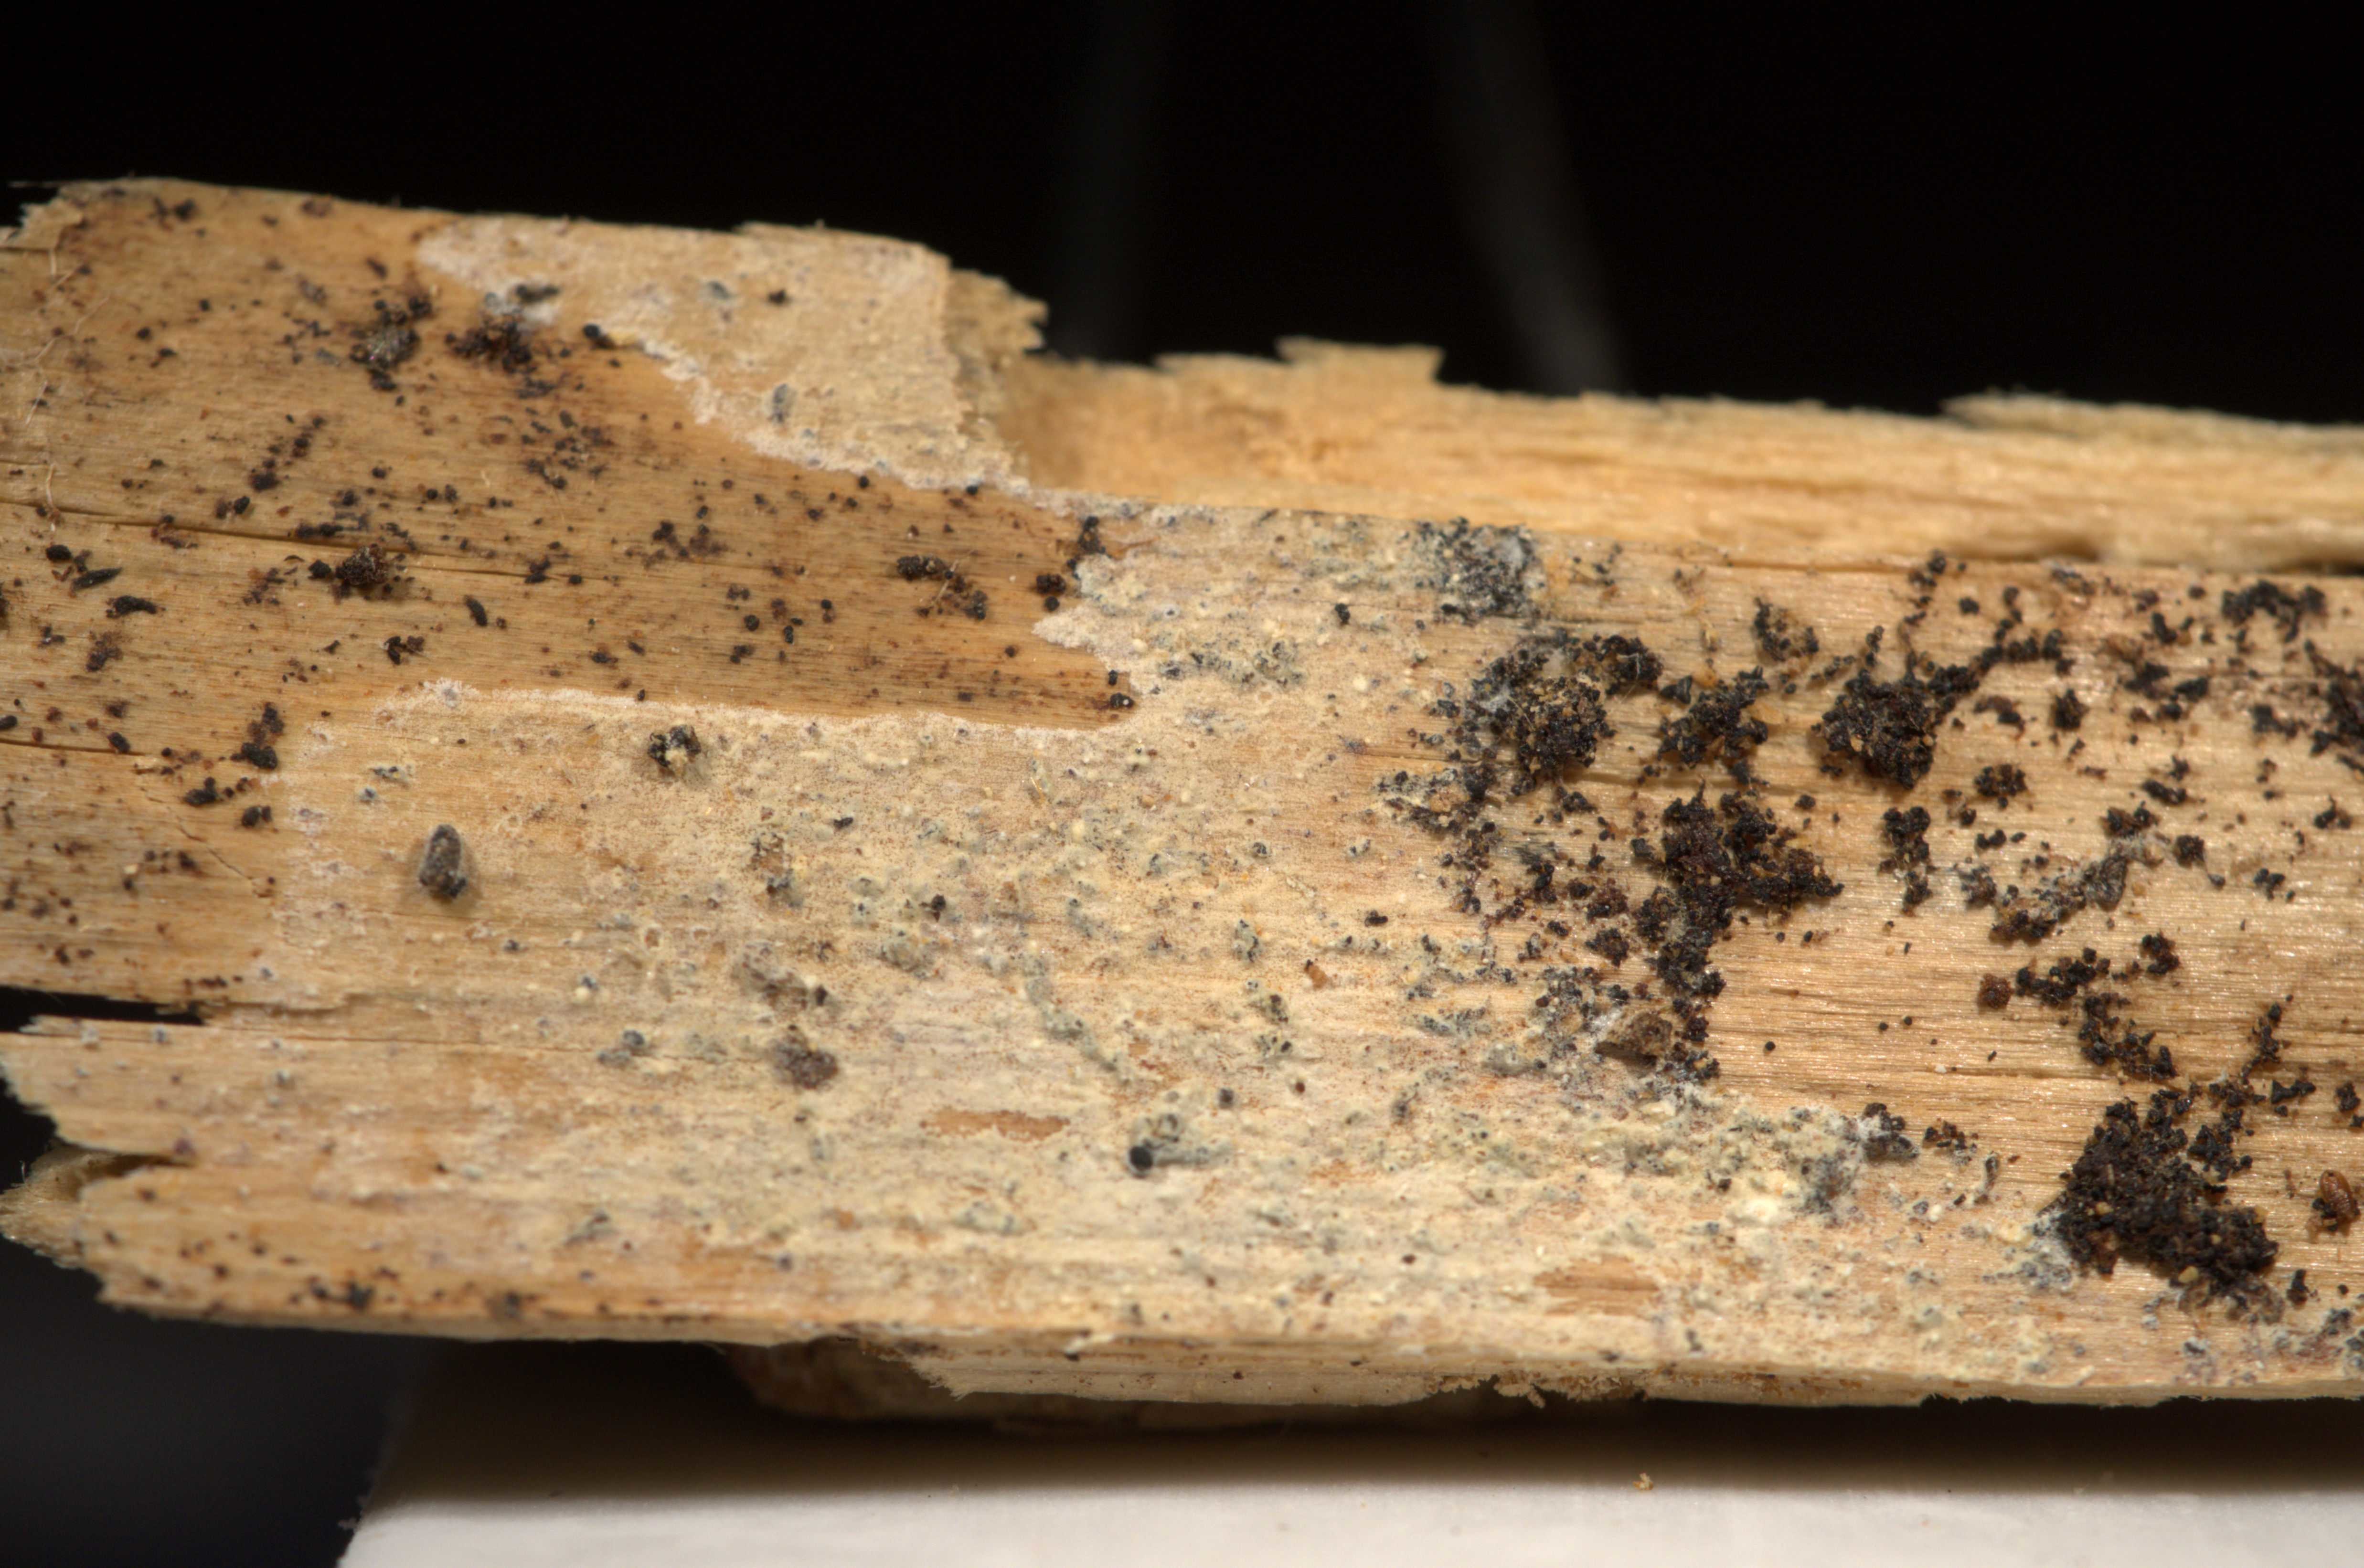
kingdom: Fungi
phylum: Basidiomycota
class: Agaricomycetes
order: Corticiales
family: Corticiaceae
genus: Lyomyces
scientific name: Lyomyces crustosus
